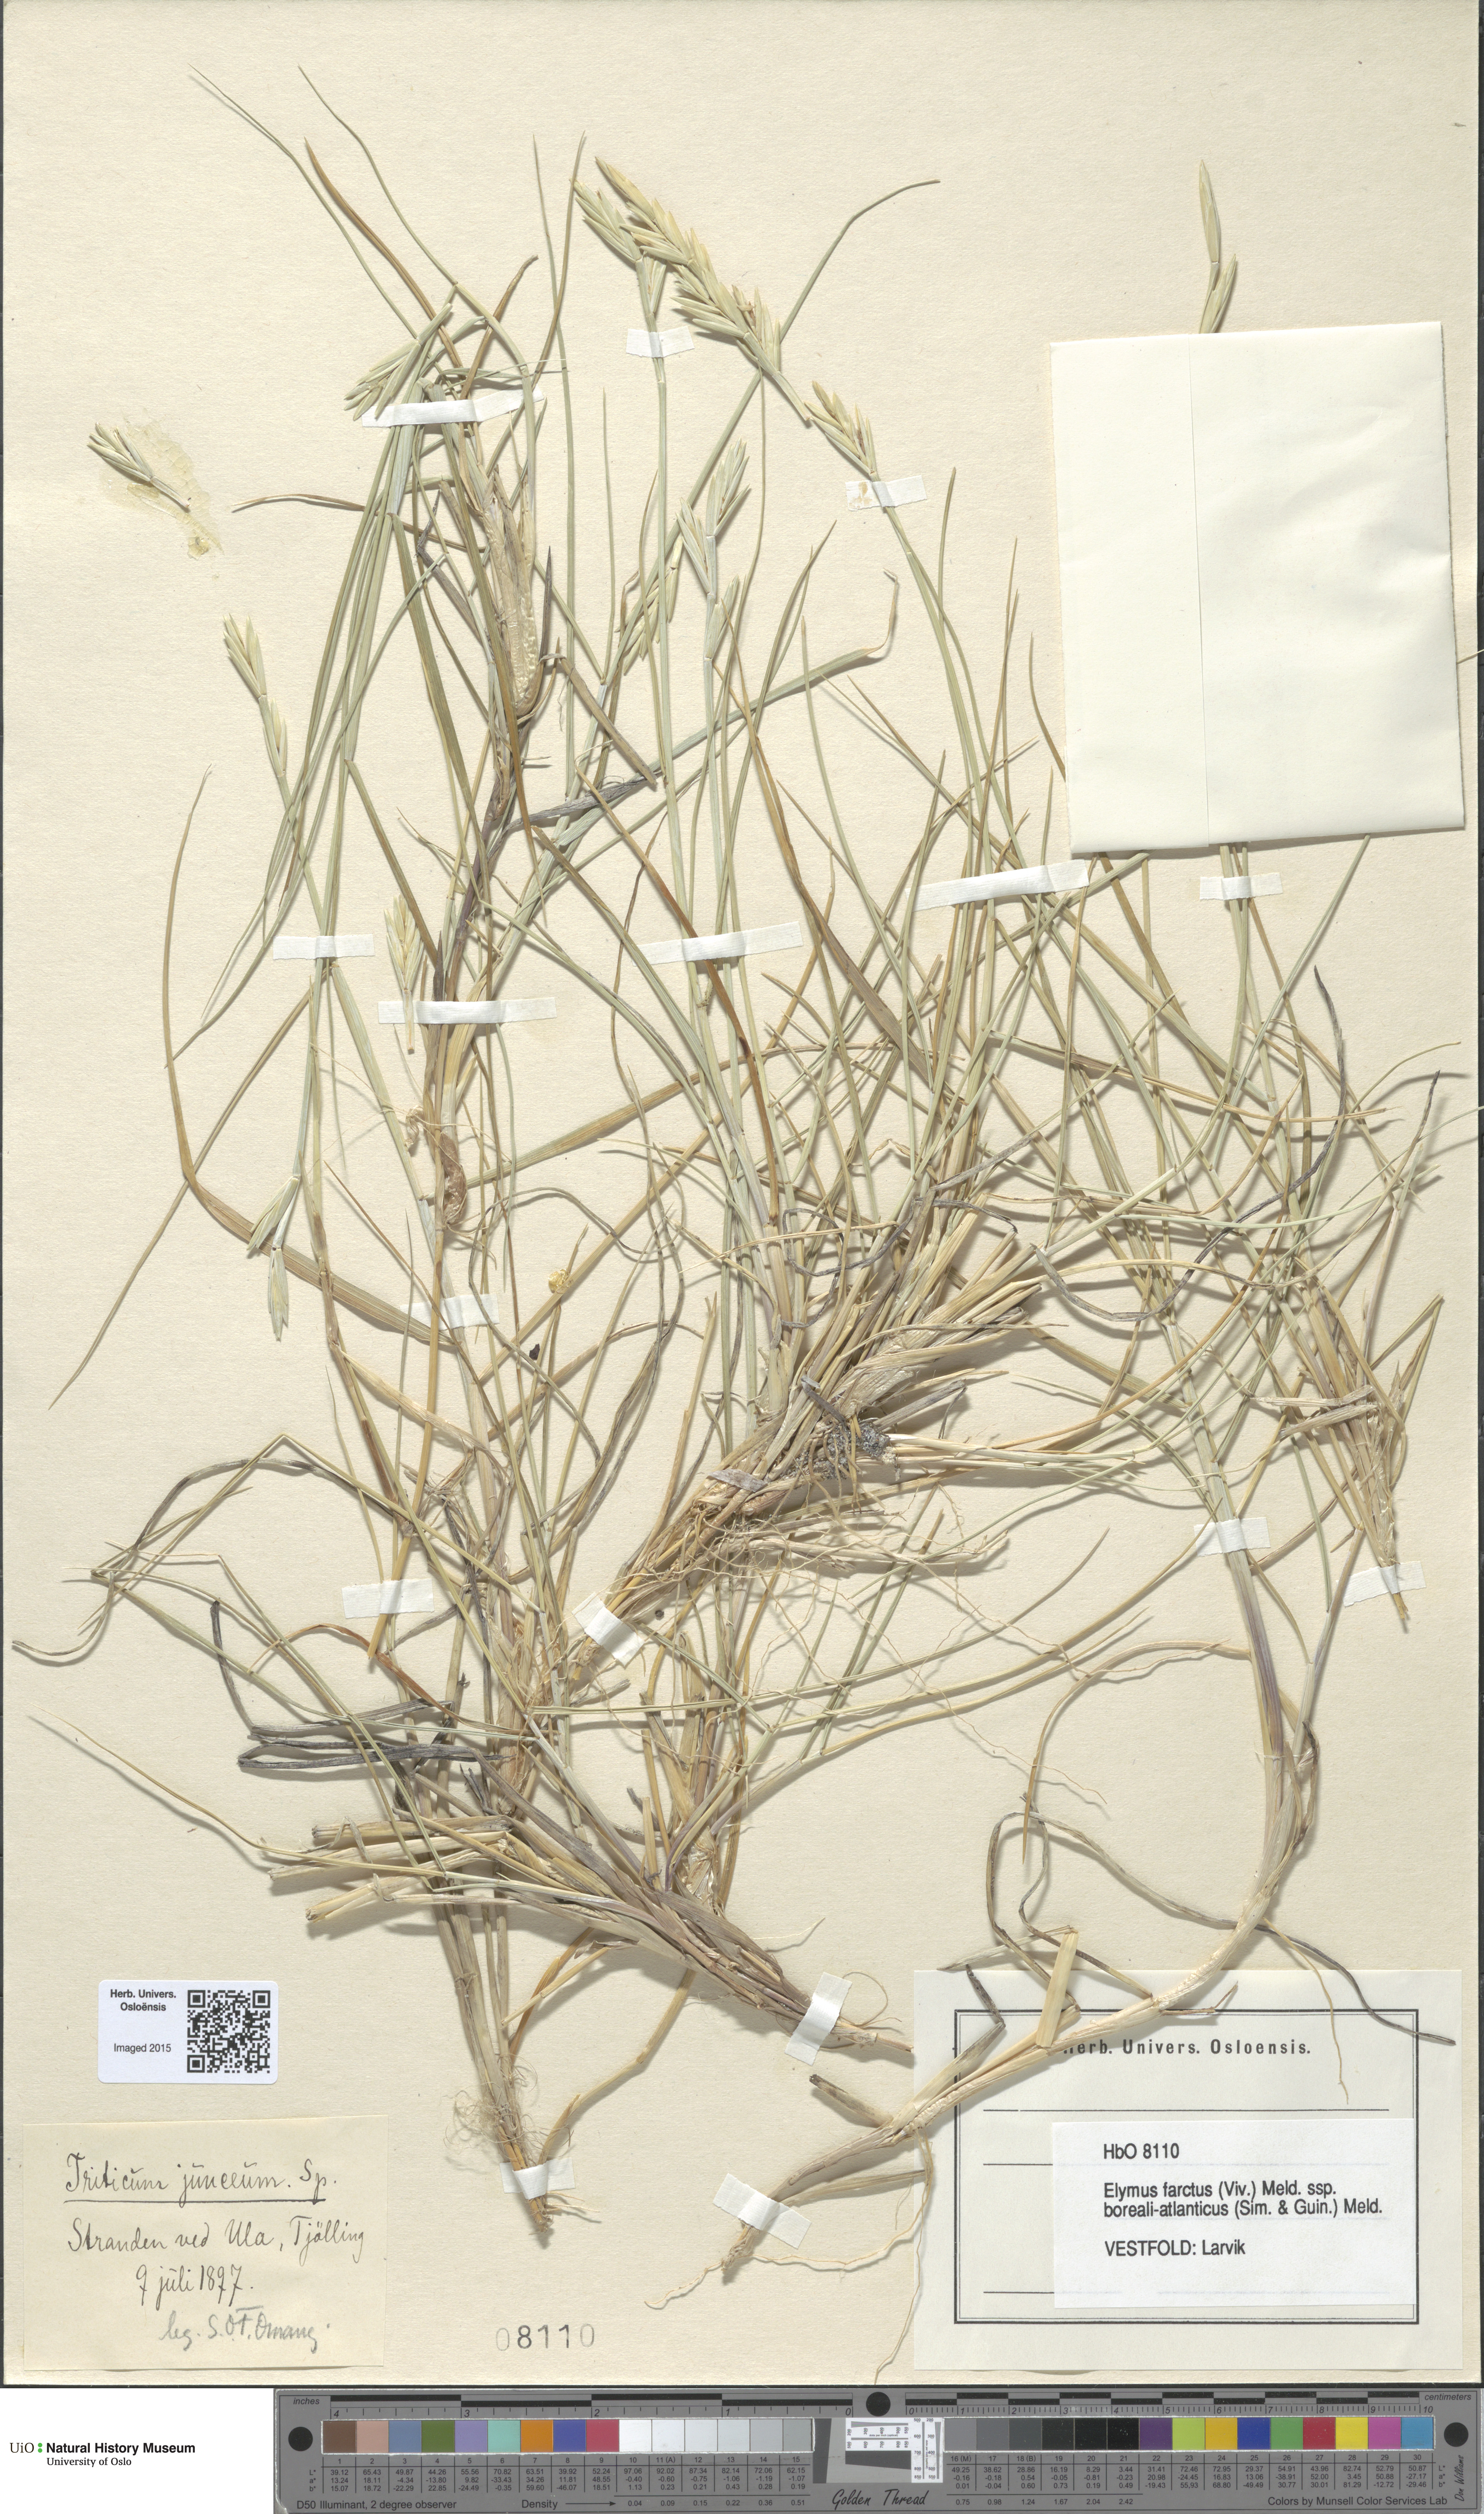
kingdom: Plantae
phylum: Tracheophyta
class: Liliopsida
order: Poales
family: Poaceae
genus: Thinopyrum
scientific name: Thinopyrum junceiforme
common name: Sea couch
